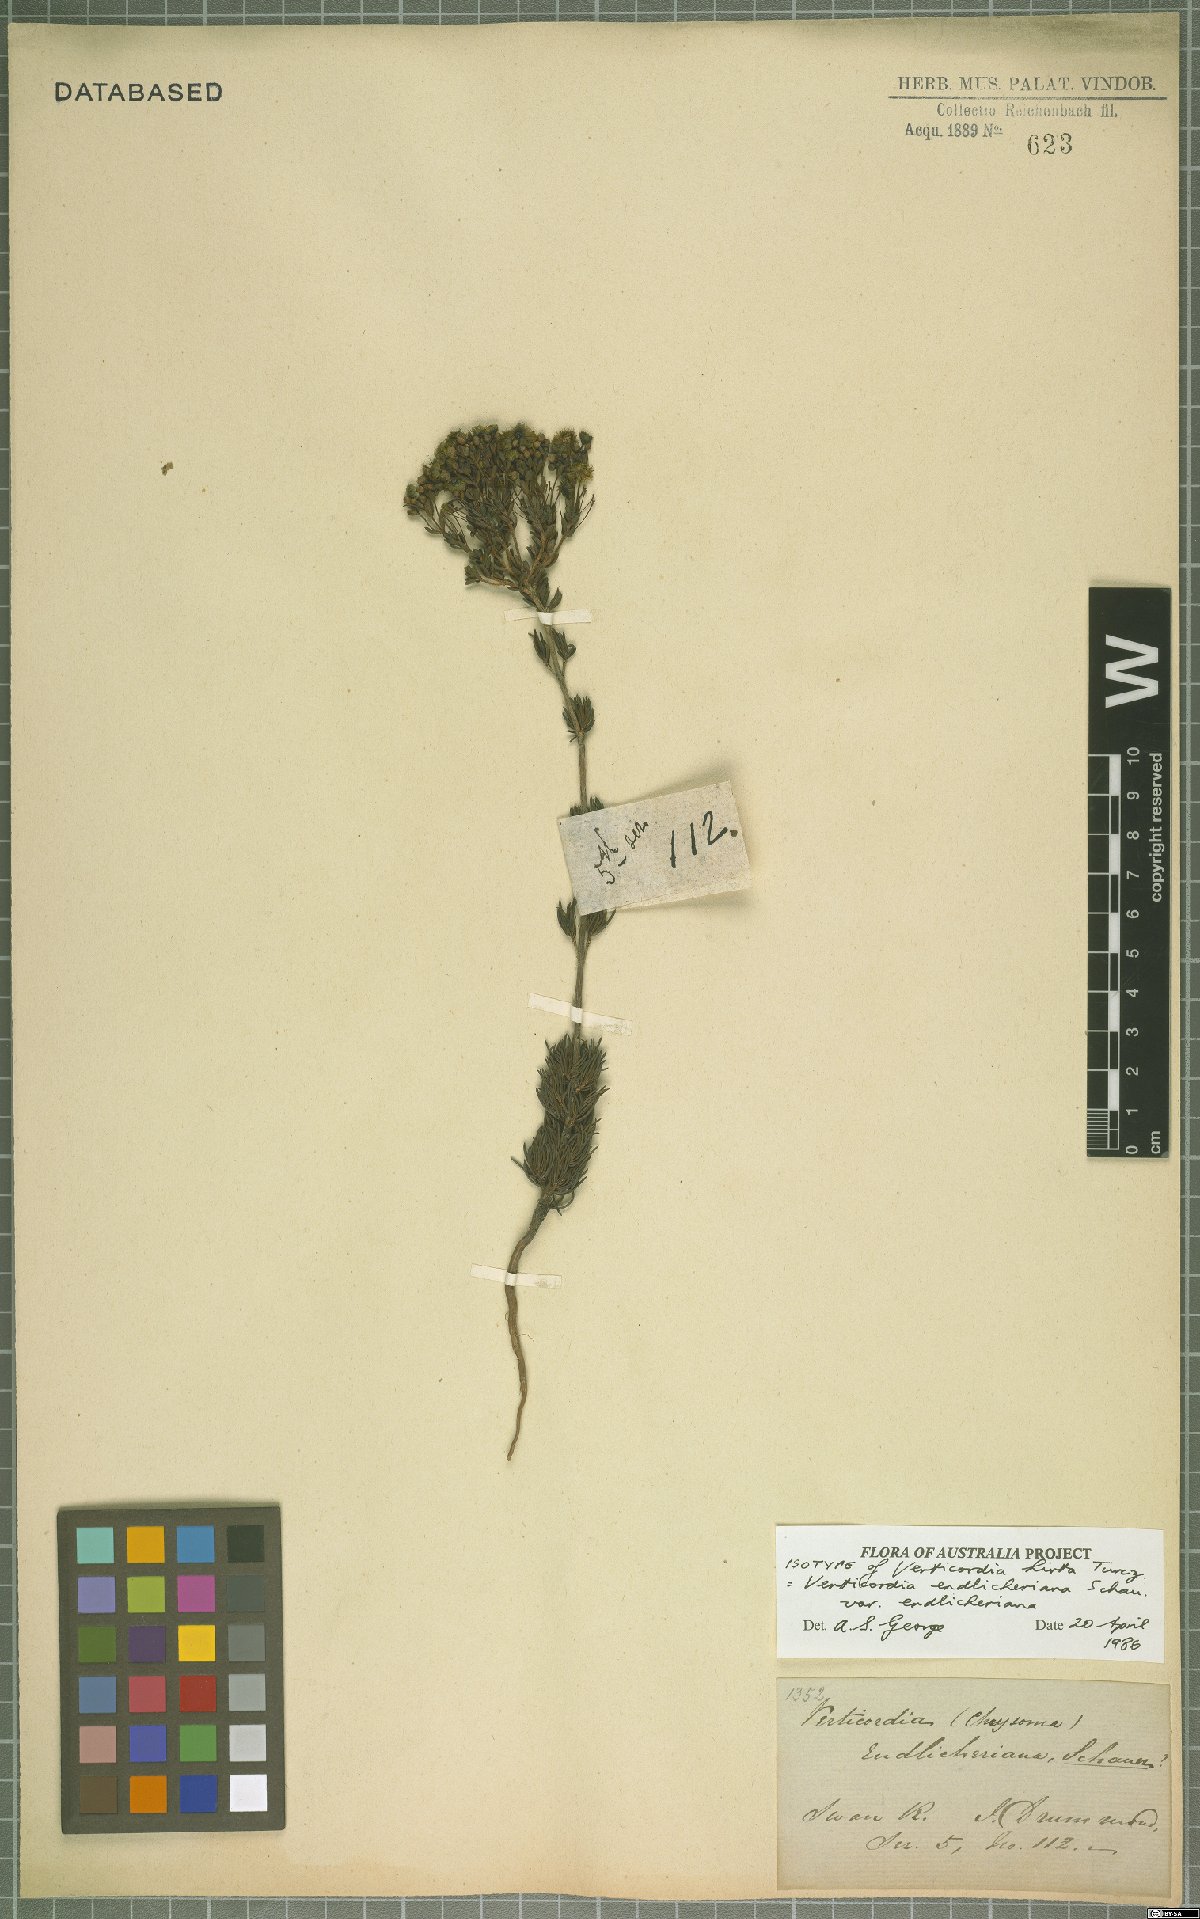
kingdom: Plantae
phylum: Tracheophyta
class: Magnoliopsida
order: Myrtales
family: Myrtaceae
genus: Verticordia
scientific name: Verticordia endlicheriana
